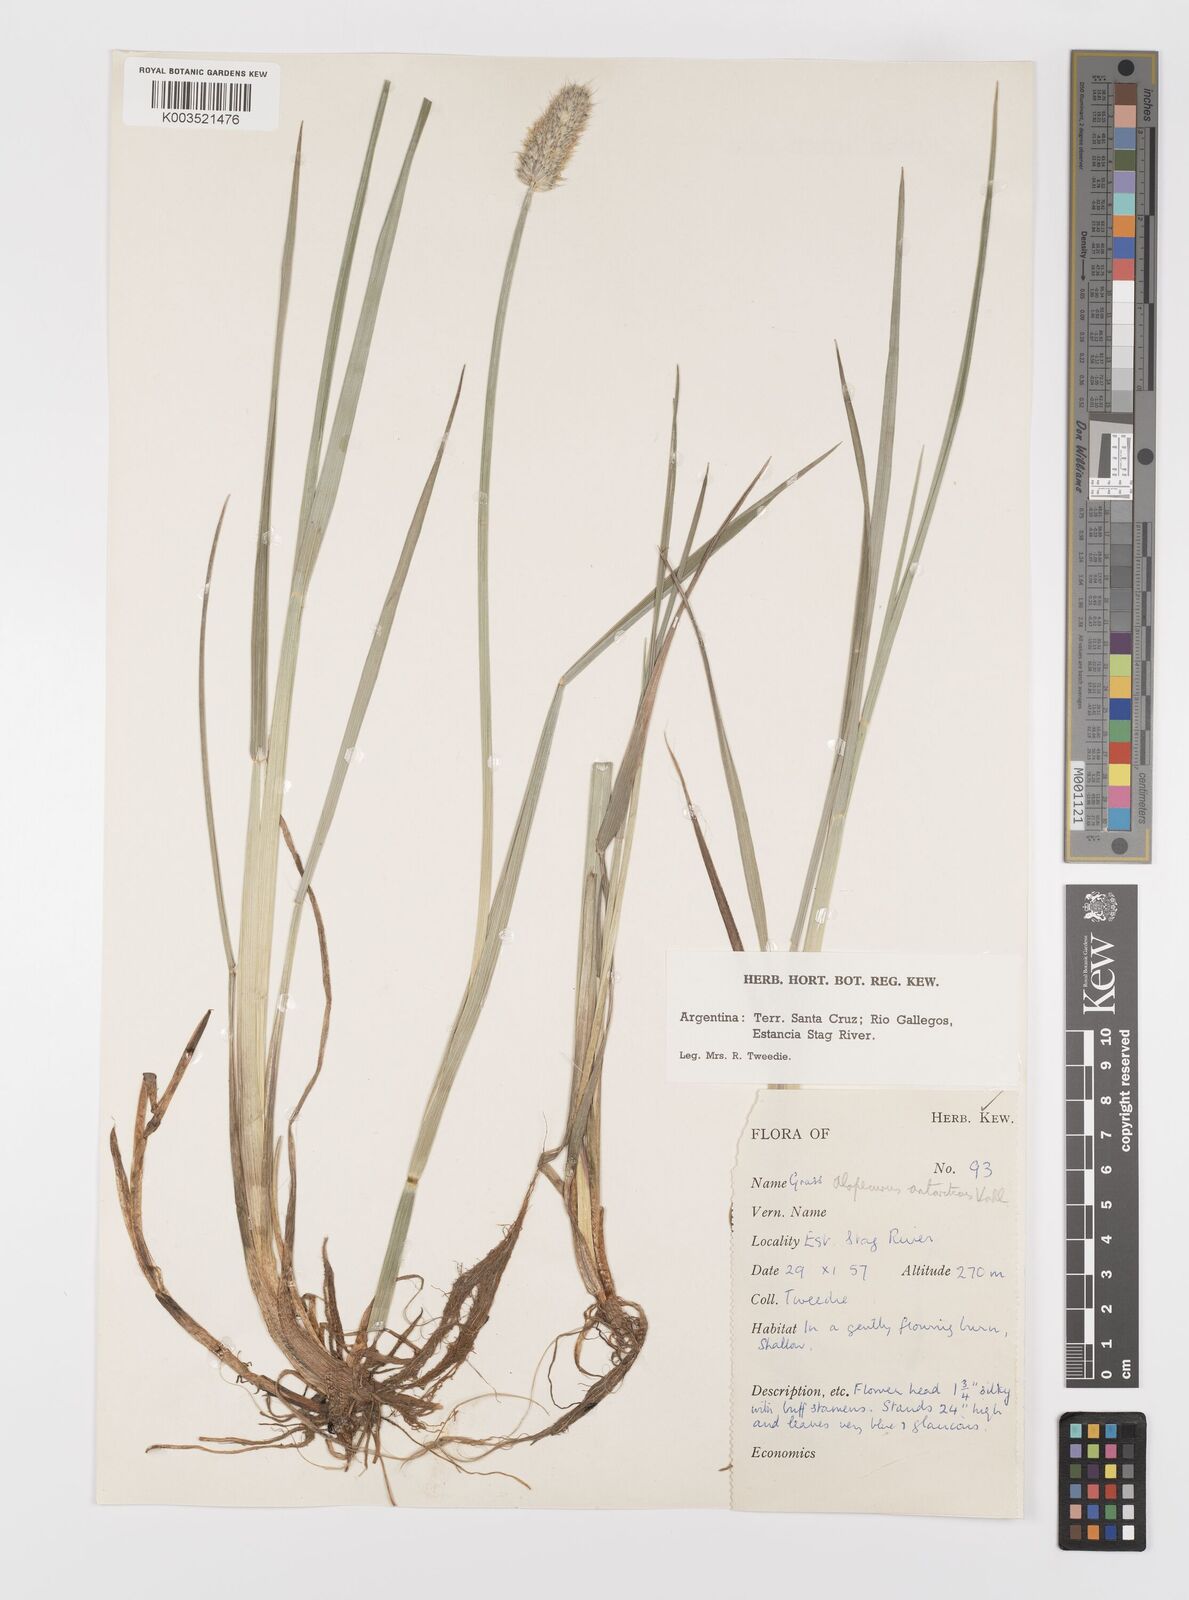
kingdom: Plantae
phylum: Tracheophyta
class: Liliopsida
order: Poales
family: Poaceae
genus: Alopecurus
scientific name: Alopecurus magellanicus
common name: Alpine foxtail
